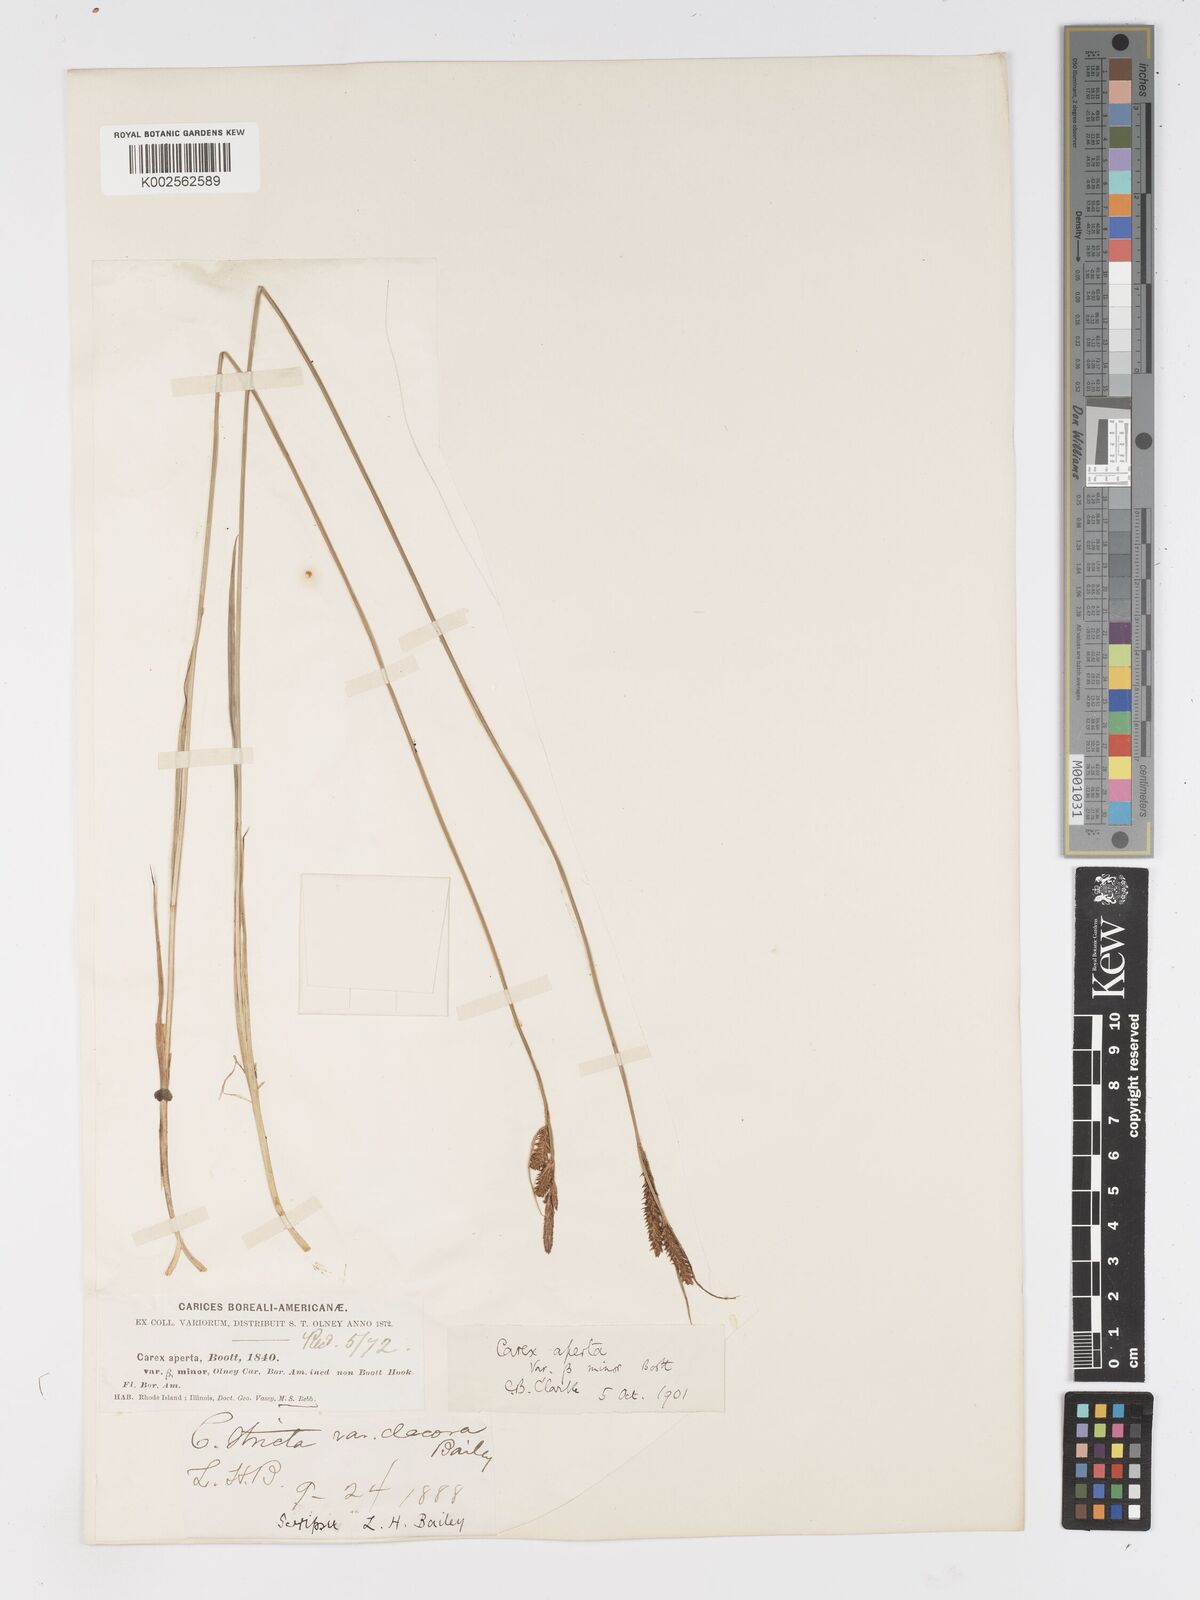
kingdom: Plantae
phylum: Tracheophyta
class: Liliopsida
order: Poales
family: Cyperaceae
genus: Carex
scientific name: Carex haydenii
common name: Hayden's sedge
